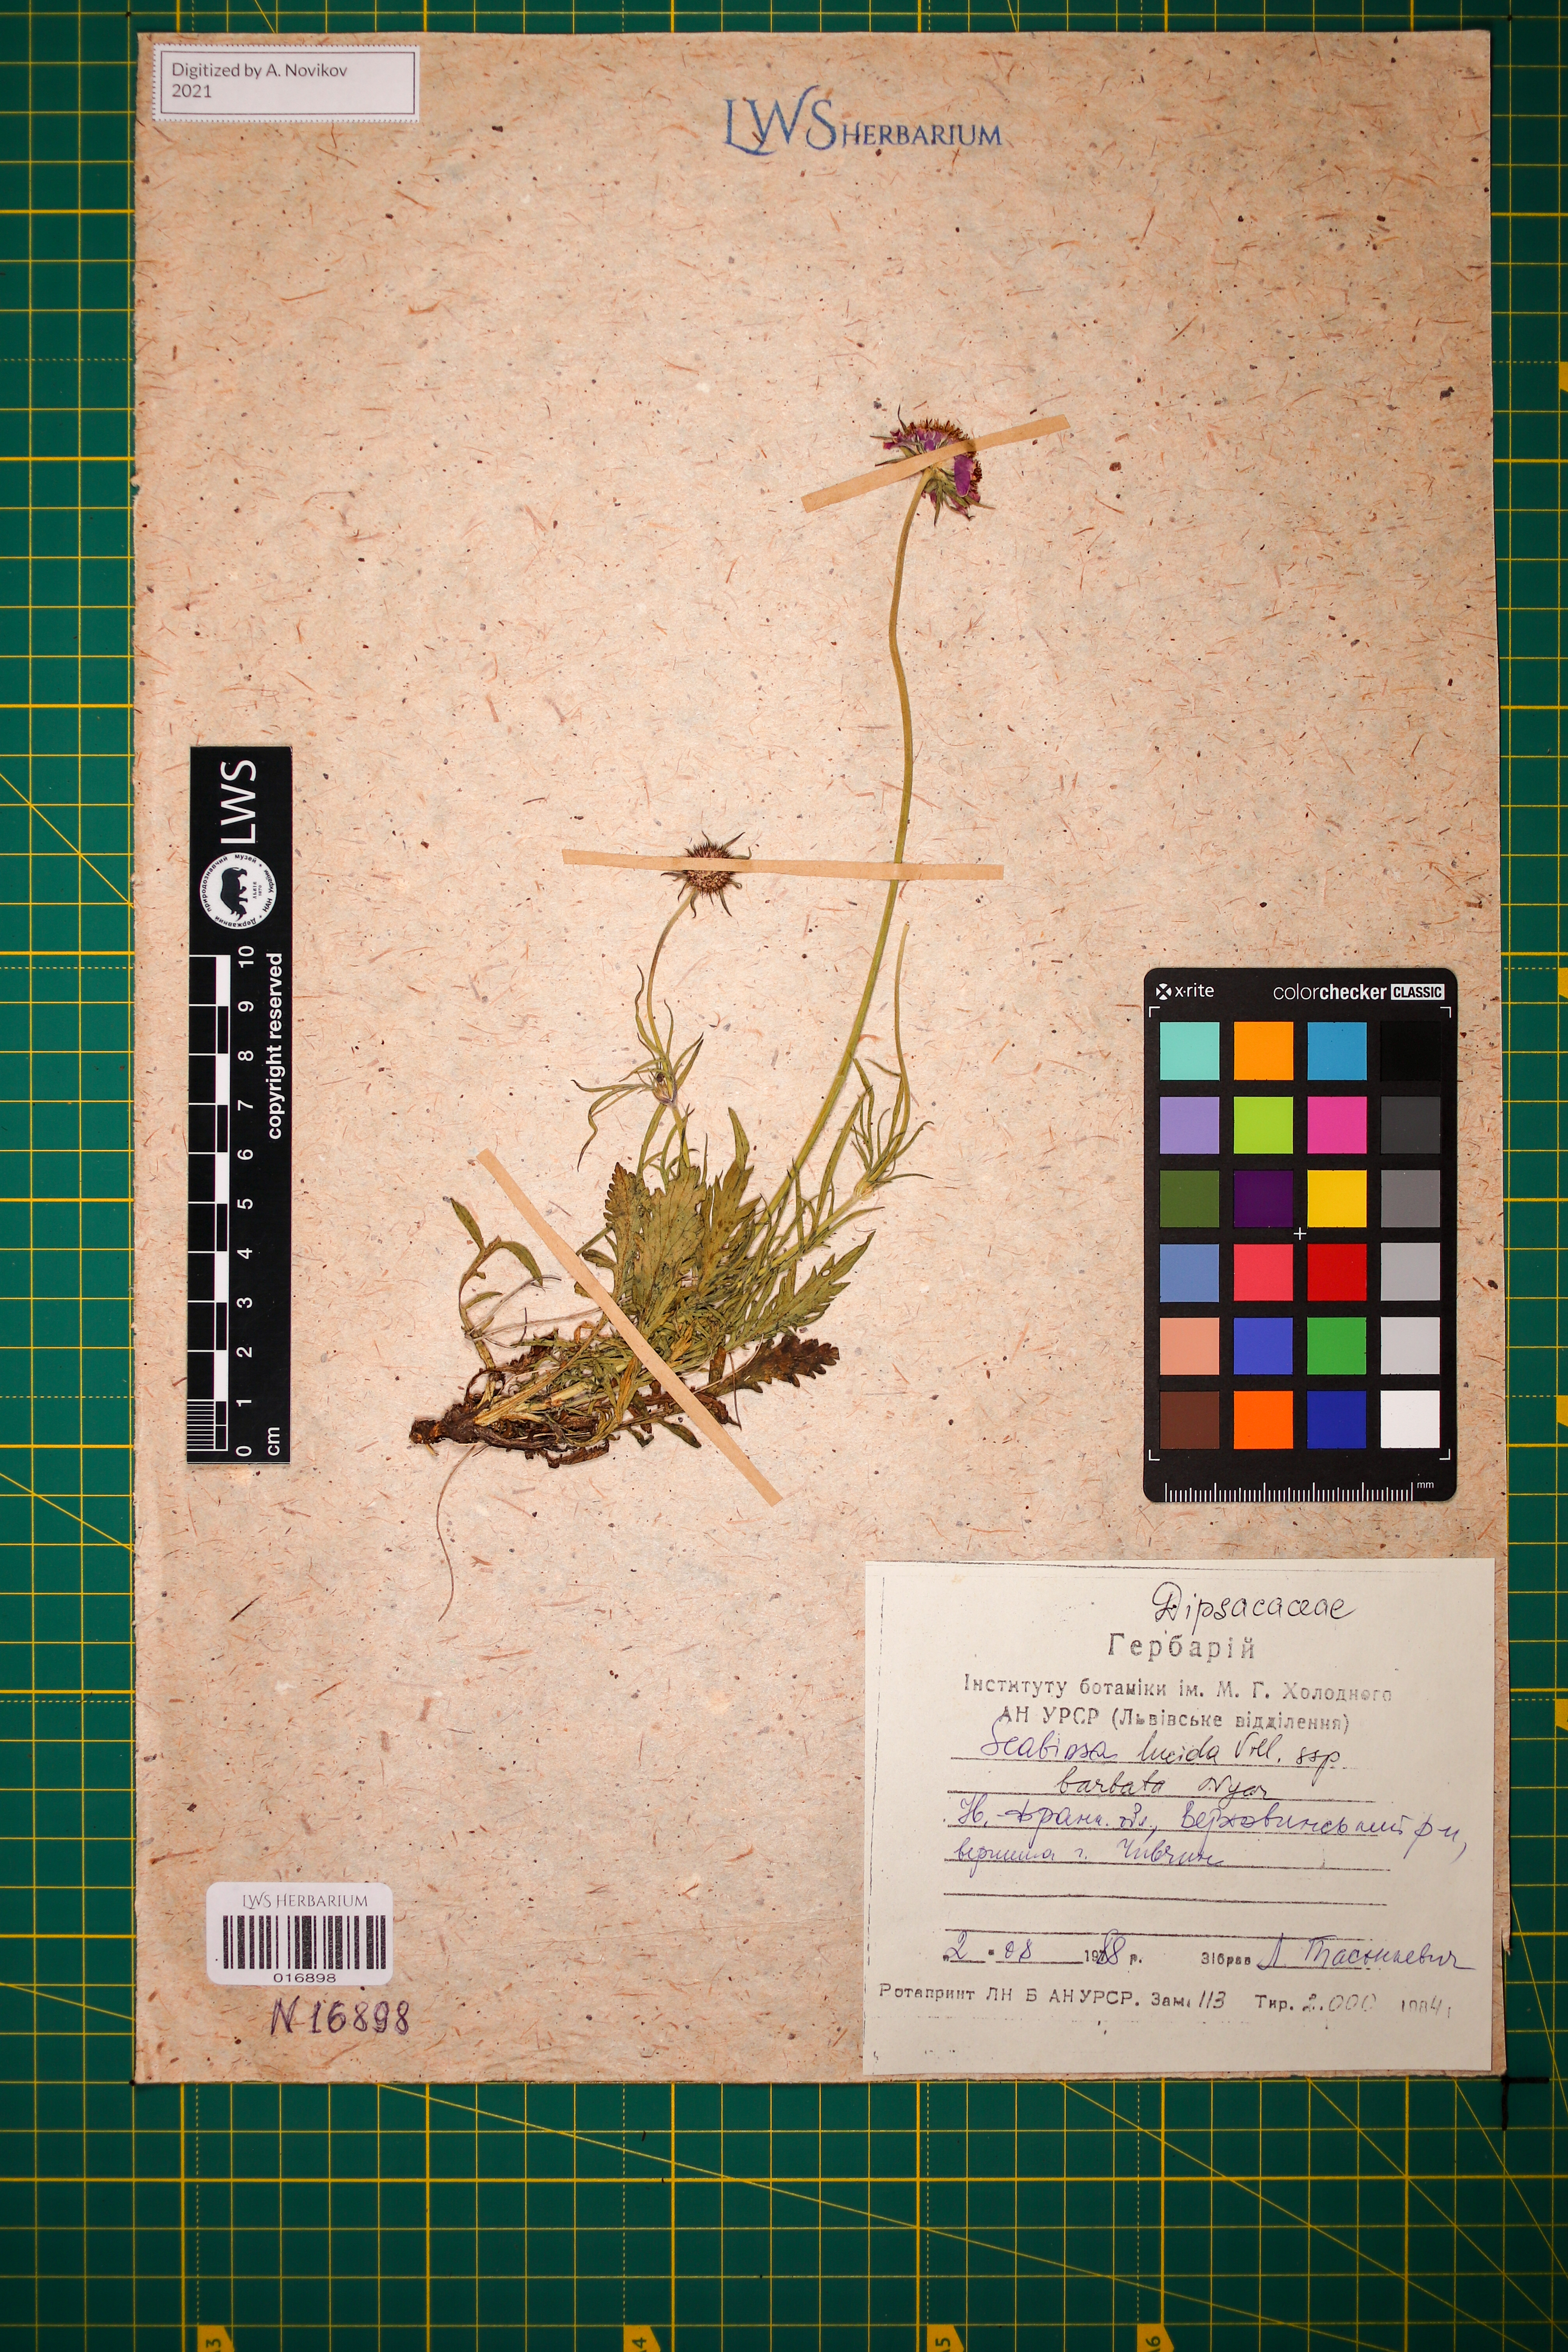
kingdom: Plantae
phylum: Tracheophyta
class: Magnoliopsida
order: Dipsacales
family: Caprifoliaceae
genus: Scabiosa
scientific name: Scabiosa lucida
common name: Shining scabious
